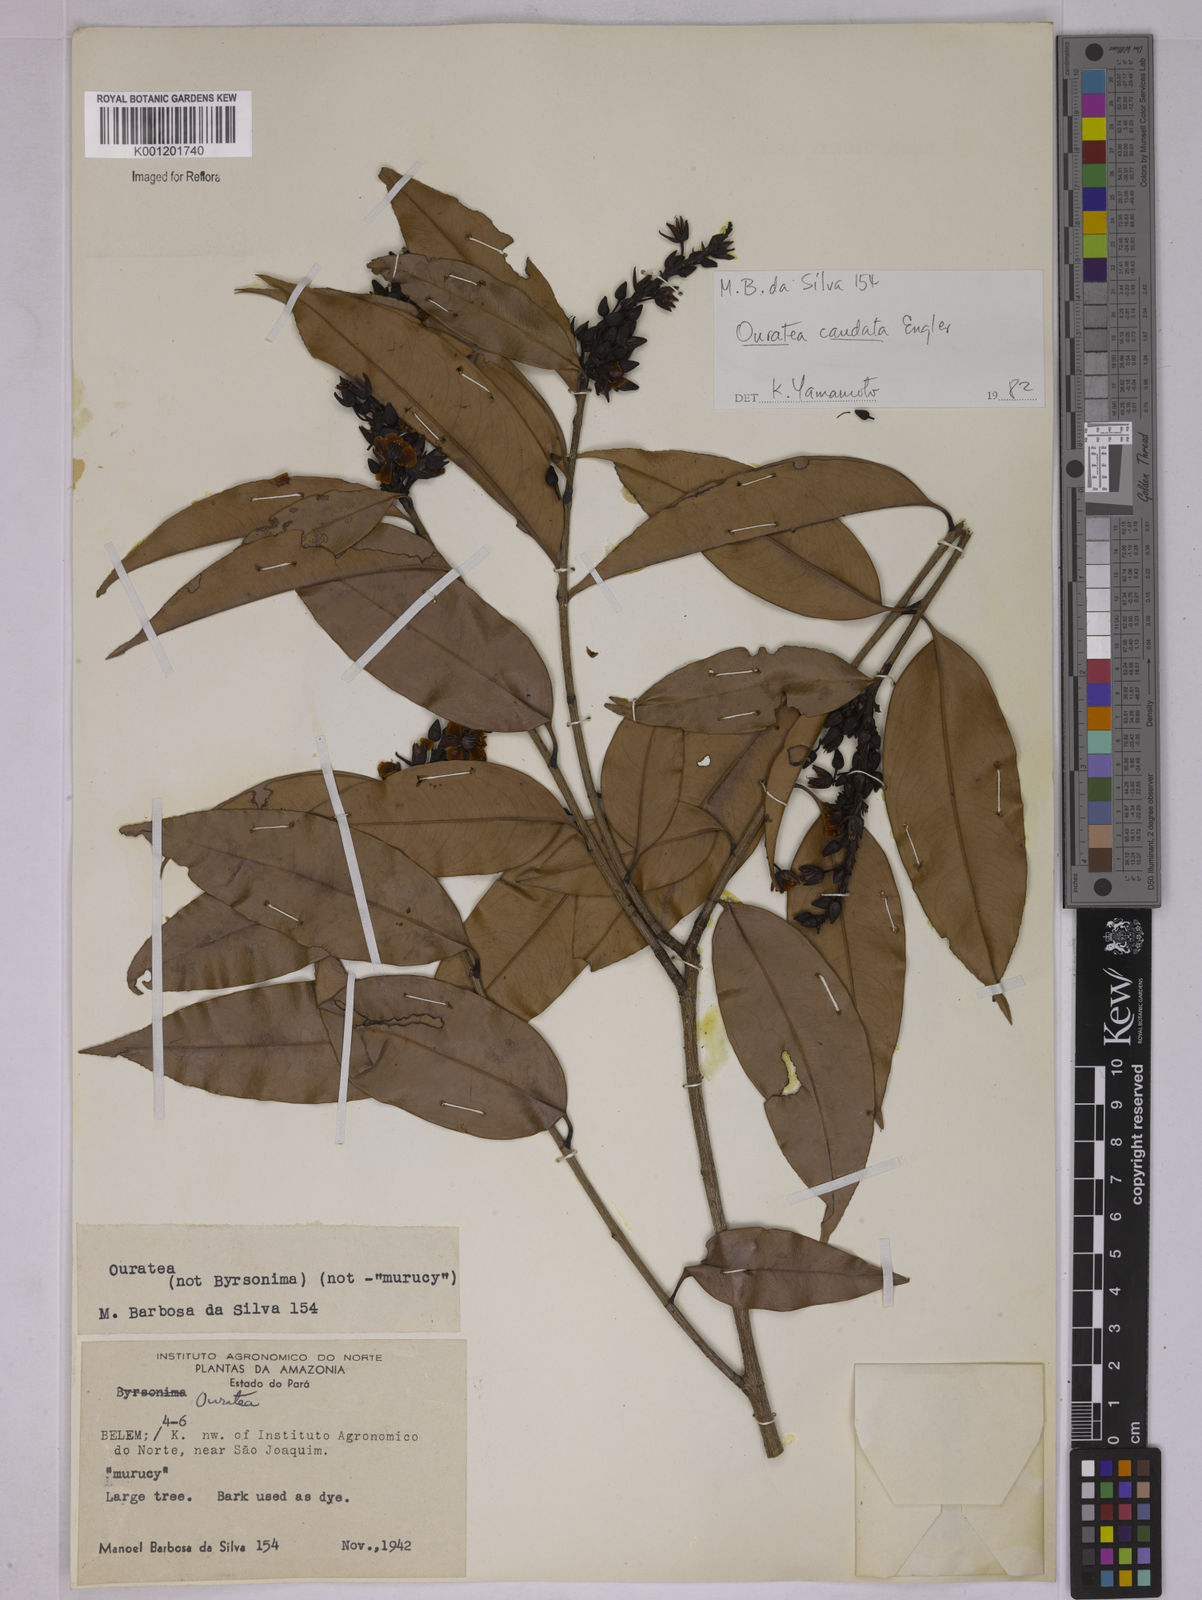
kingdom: Plantae
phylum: Tracheophyta
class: Magnoliopsida
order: Malpighiales
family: Ochnaceae
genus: Ouratea
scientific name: Ouratea caudata
